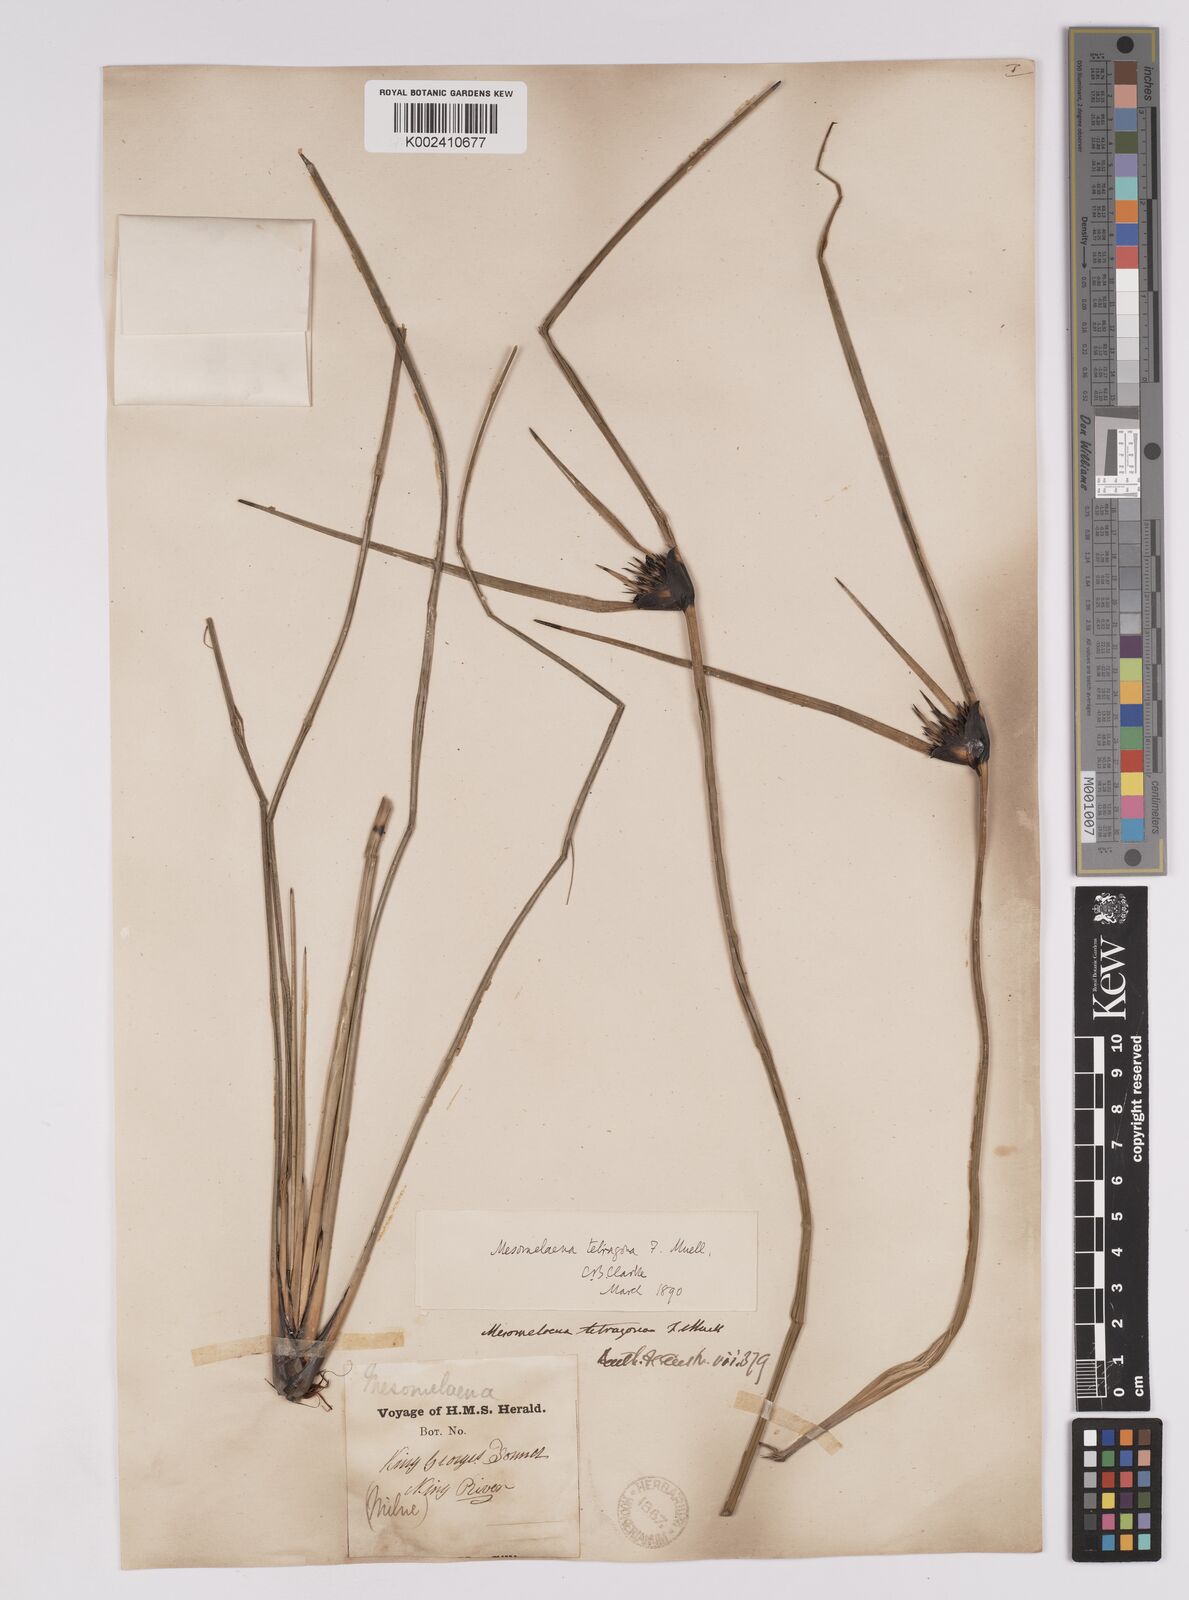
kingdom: Plantae
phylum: Tracheophyta
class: Liliopsida
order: Poales
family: Cyperaceae
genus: Mesomelaena
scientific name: Mesomelaena tetragona
